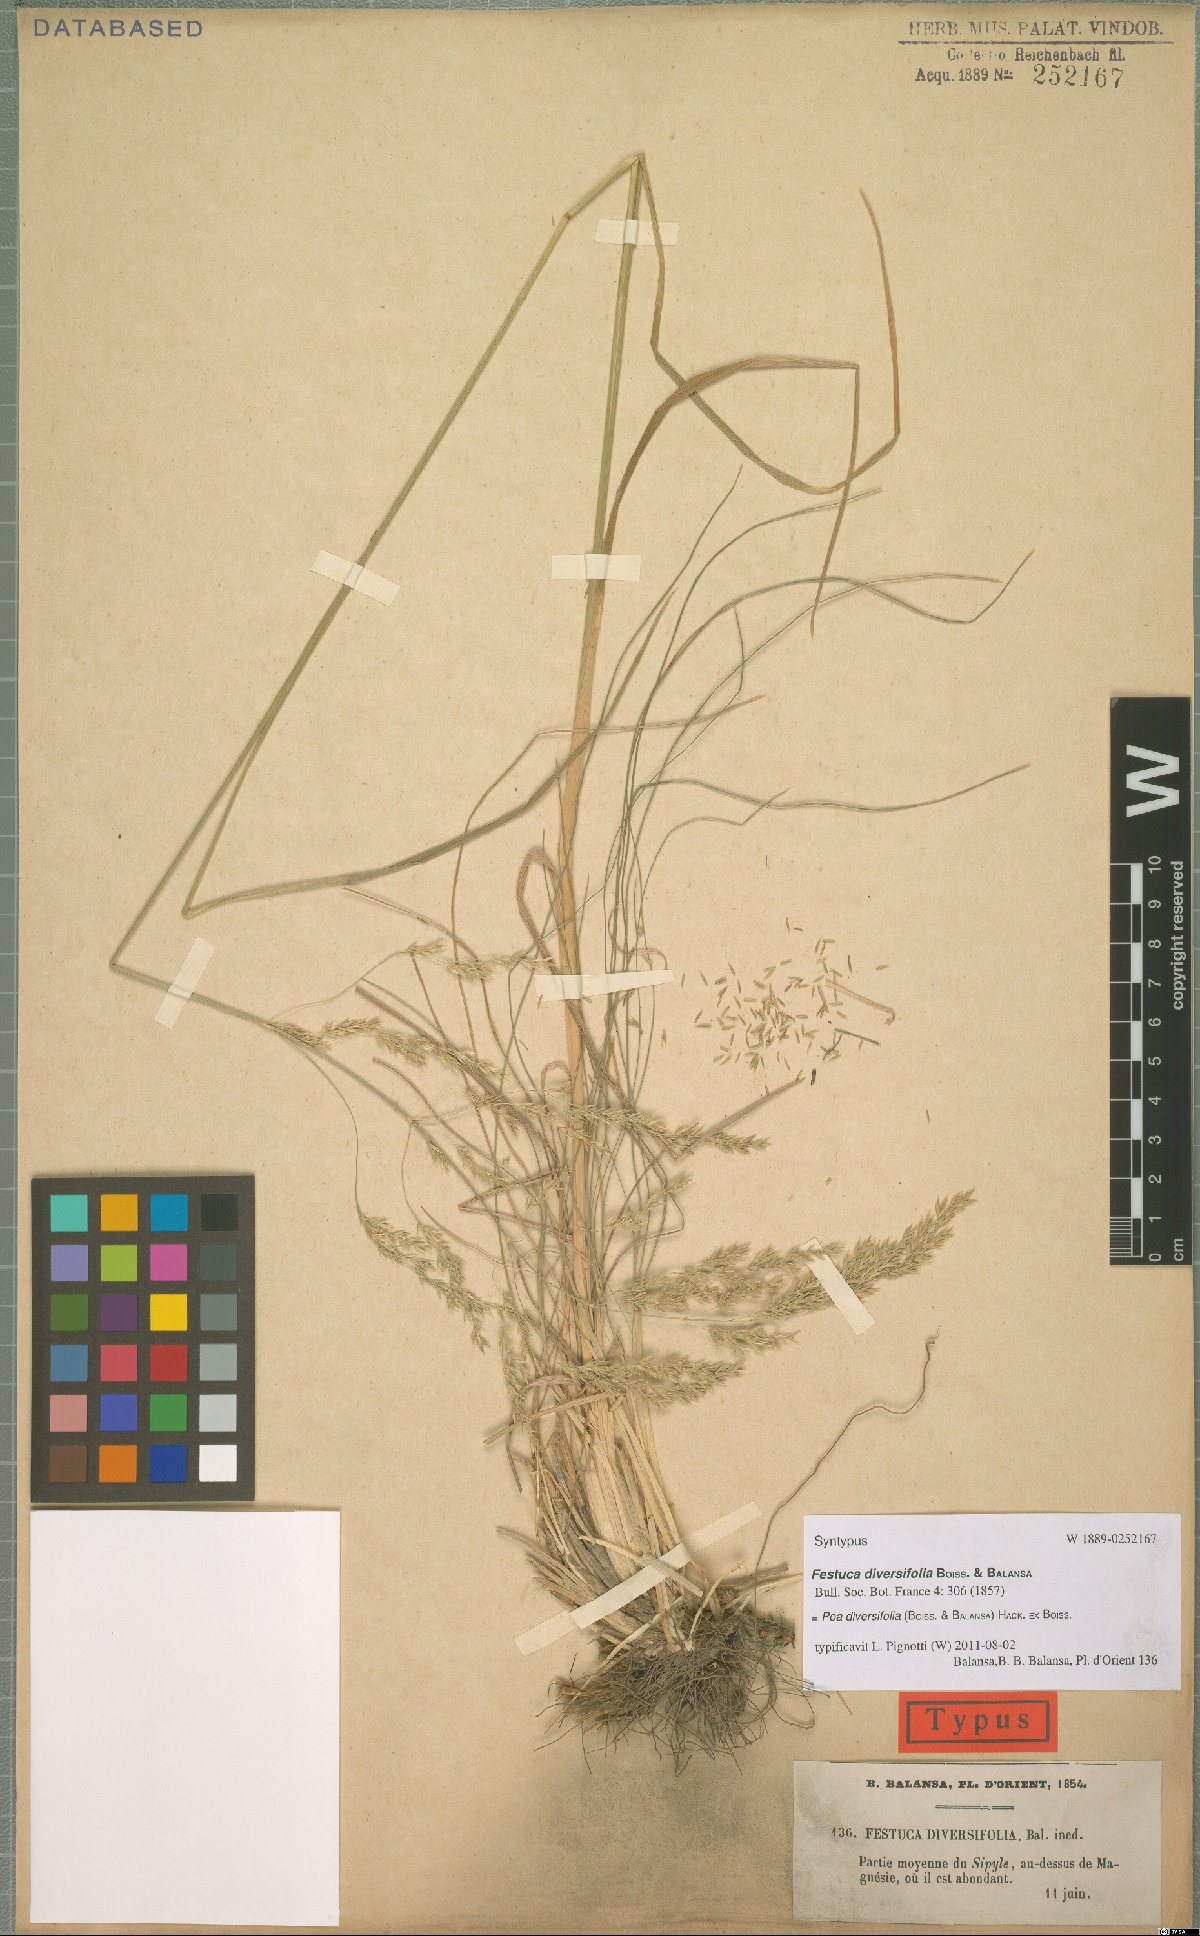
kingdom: Plantae
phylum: Tracheophyta
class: Liliopsida
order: Poales
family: Poaceae
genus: Poa
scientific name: Poa diversifolia
